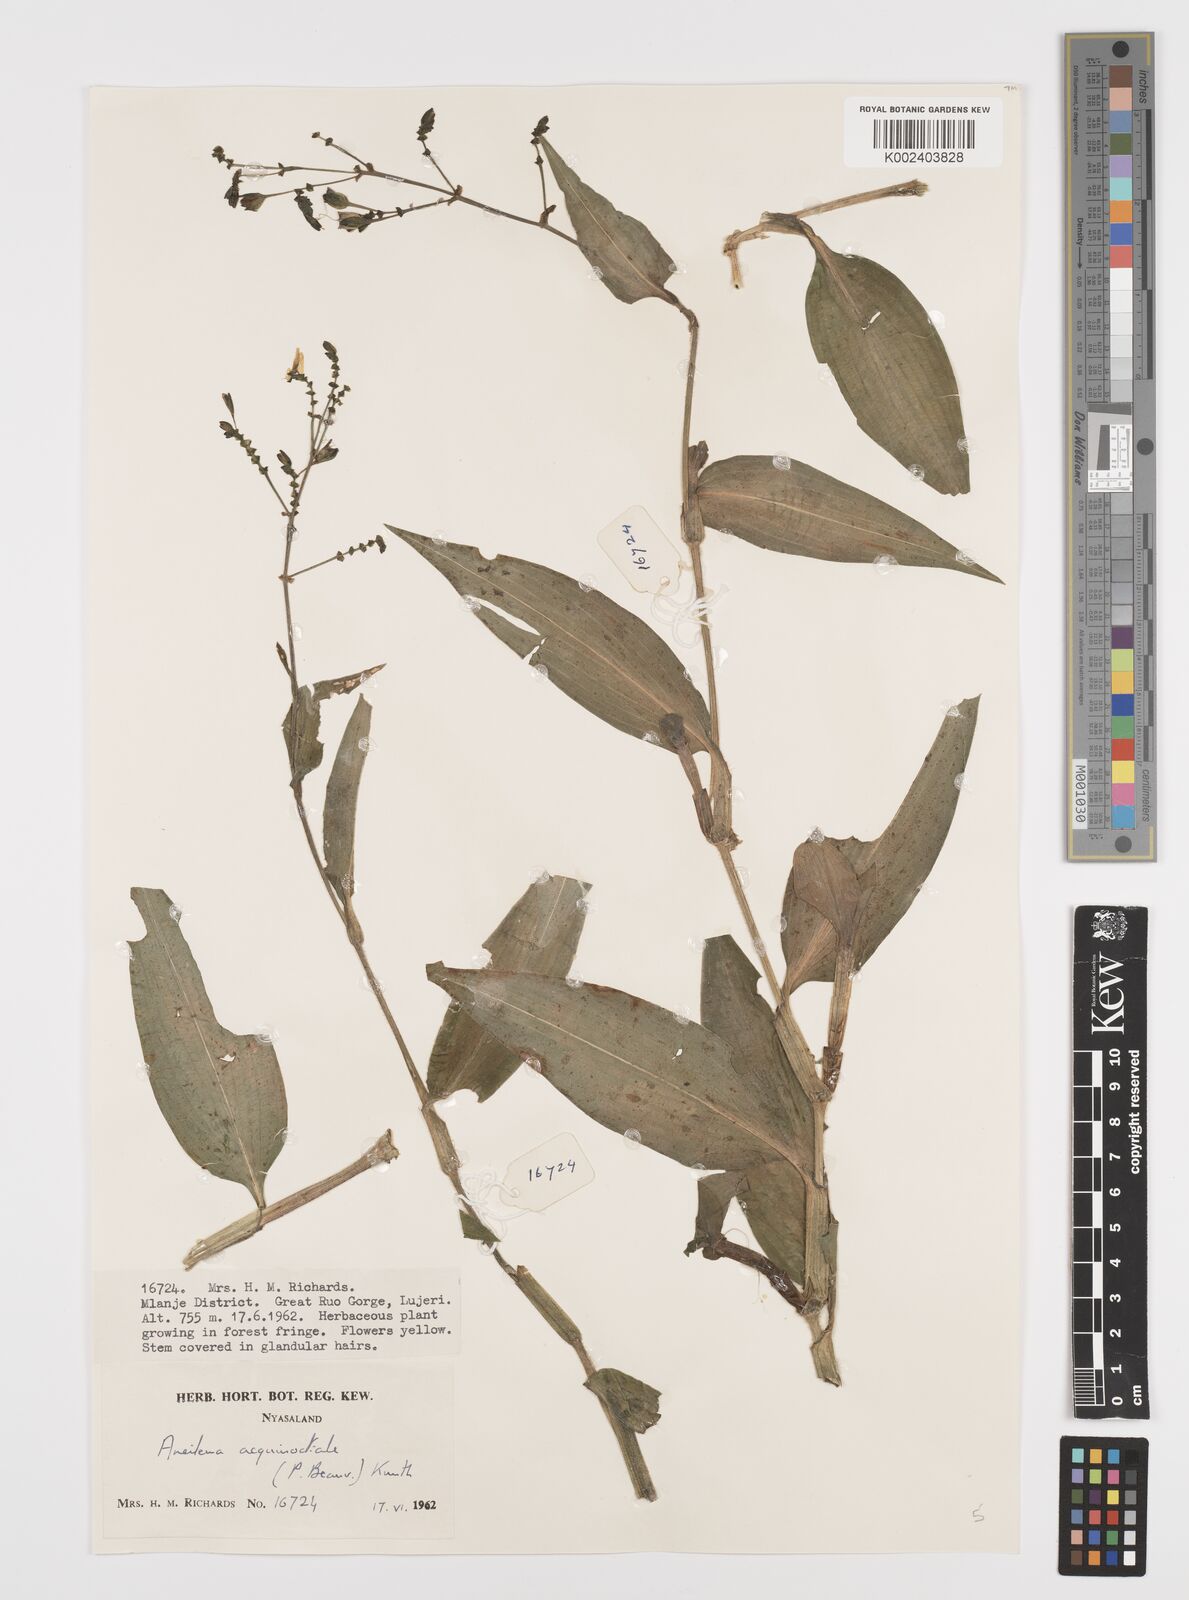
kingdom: Plantae
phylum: Tracheophyta
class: Liliopsida
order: Commelinales
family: Commelinaceae
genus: Aneilema
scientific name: Aneilema aequinoctiale
